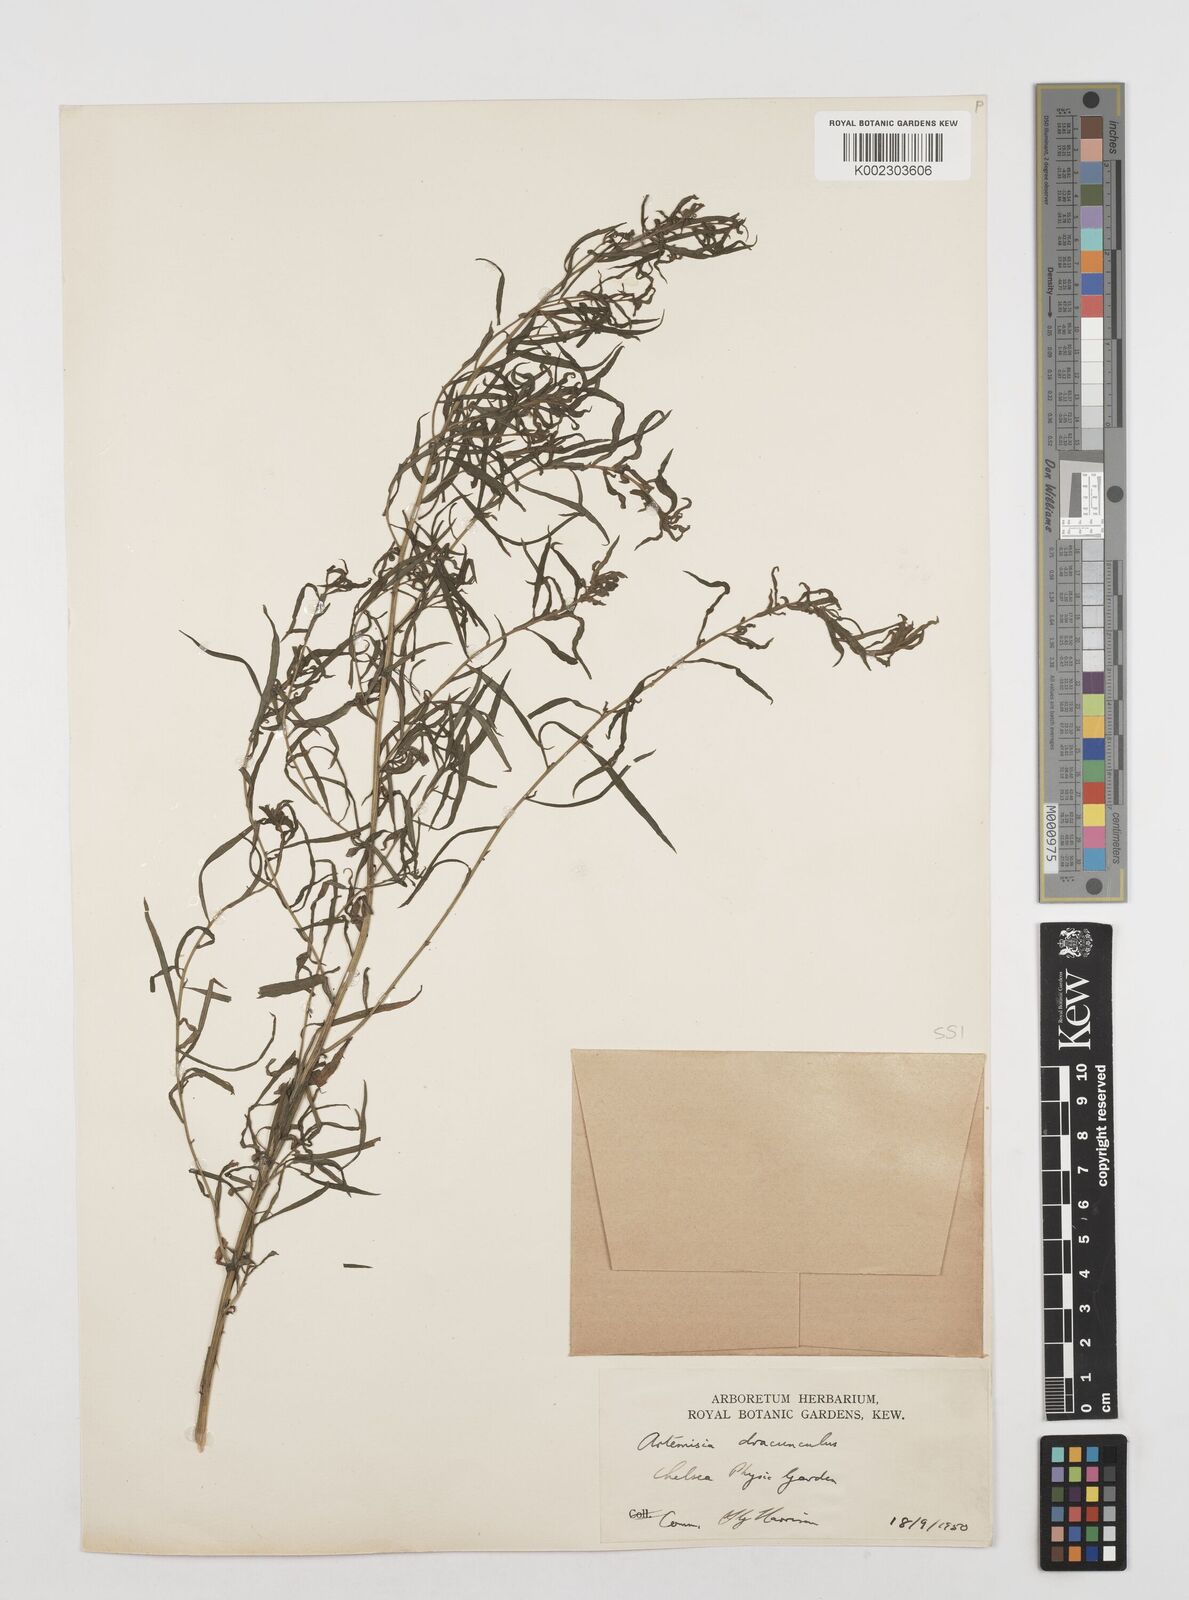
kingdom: Plantae
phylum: Tracheophyta
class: Magnoliopsida
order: Asterales
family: Asteraceae
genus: Artemisia
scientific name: Artemisia dracunculus
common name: Tarragon
